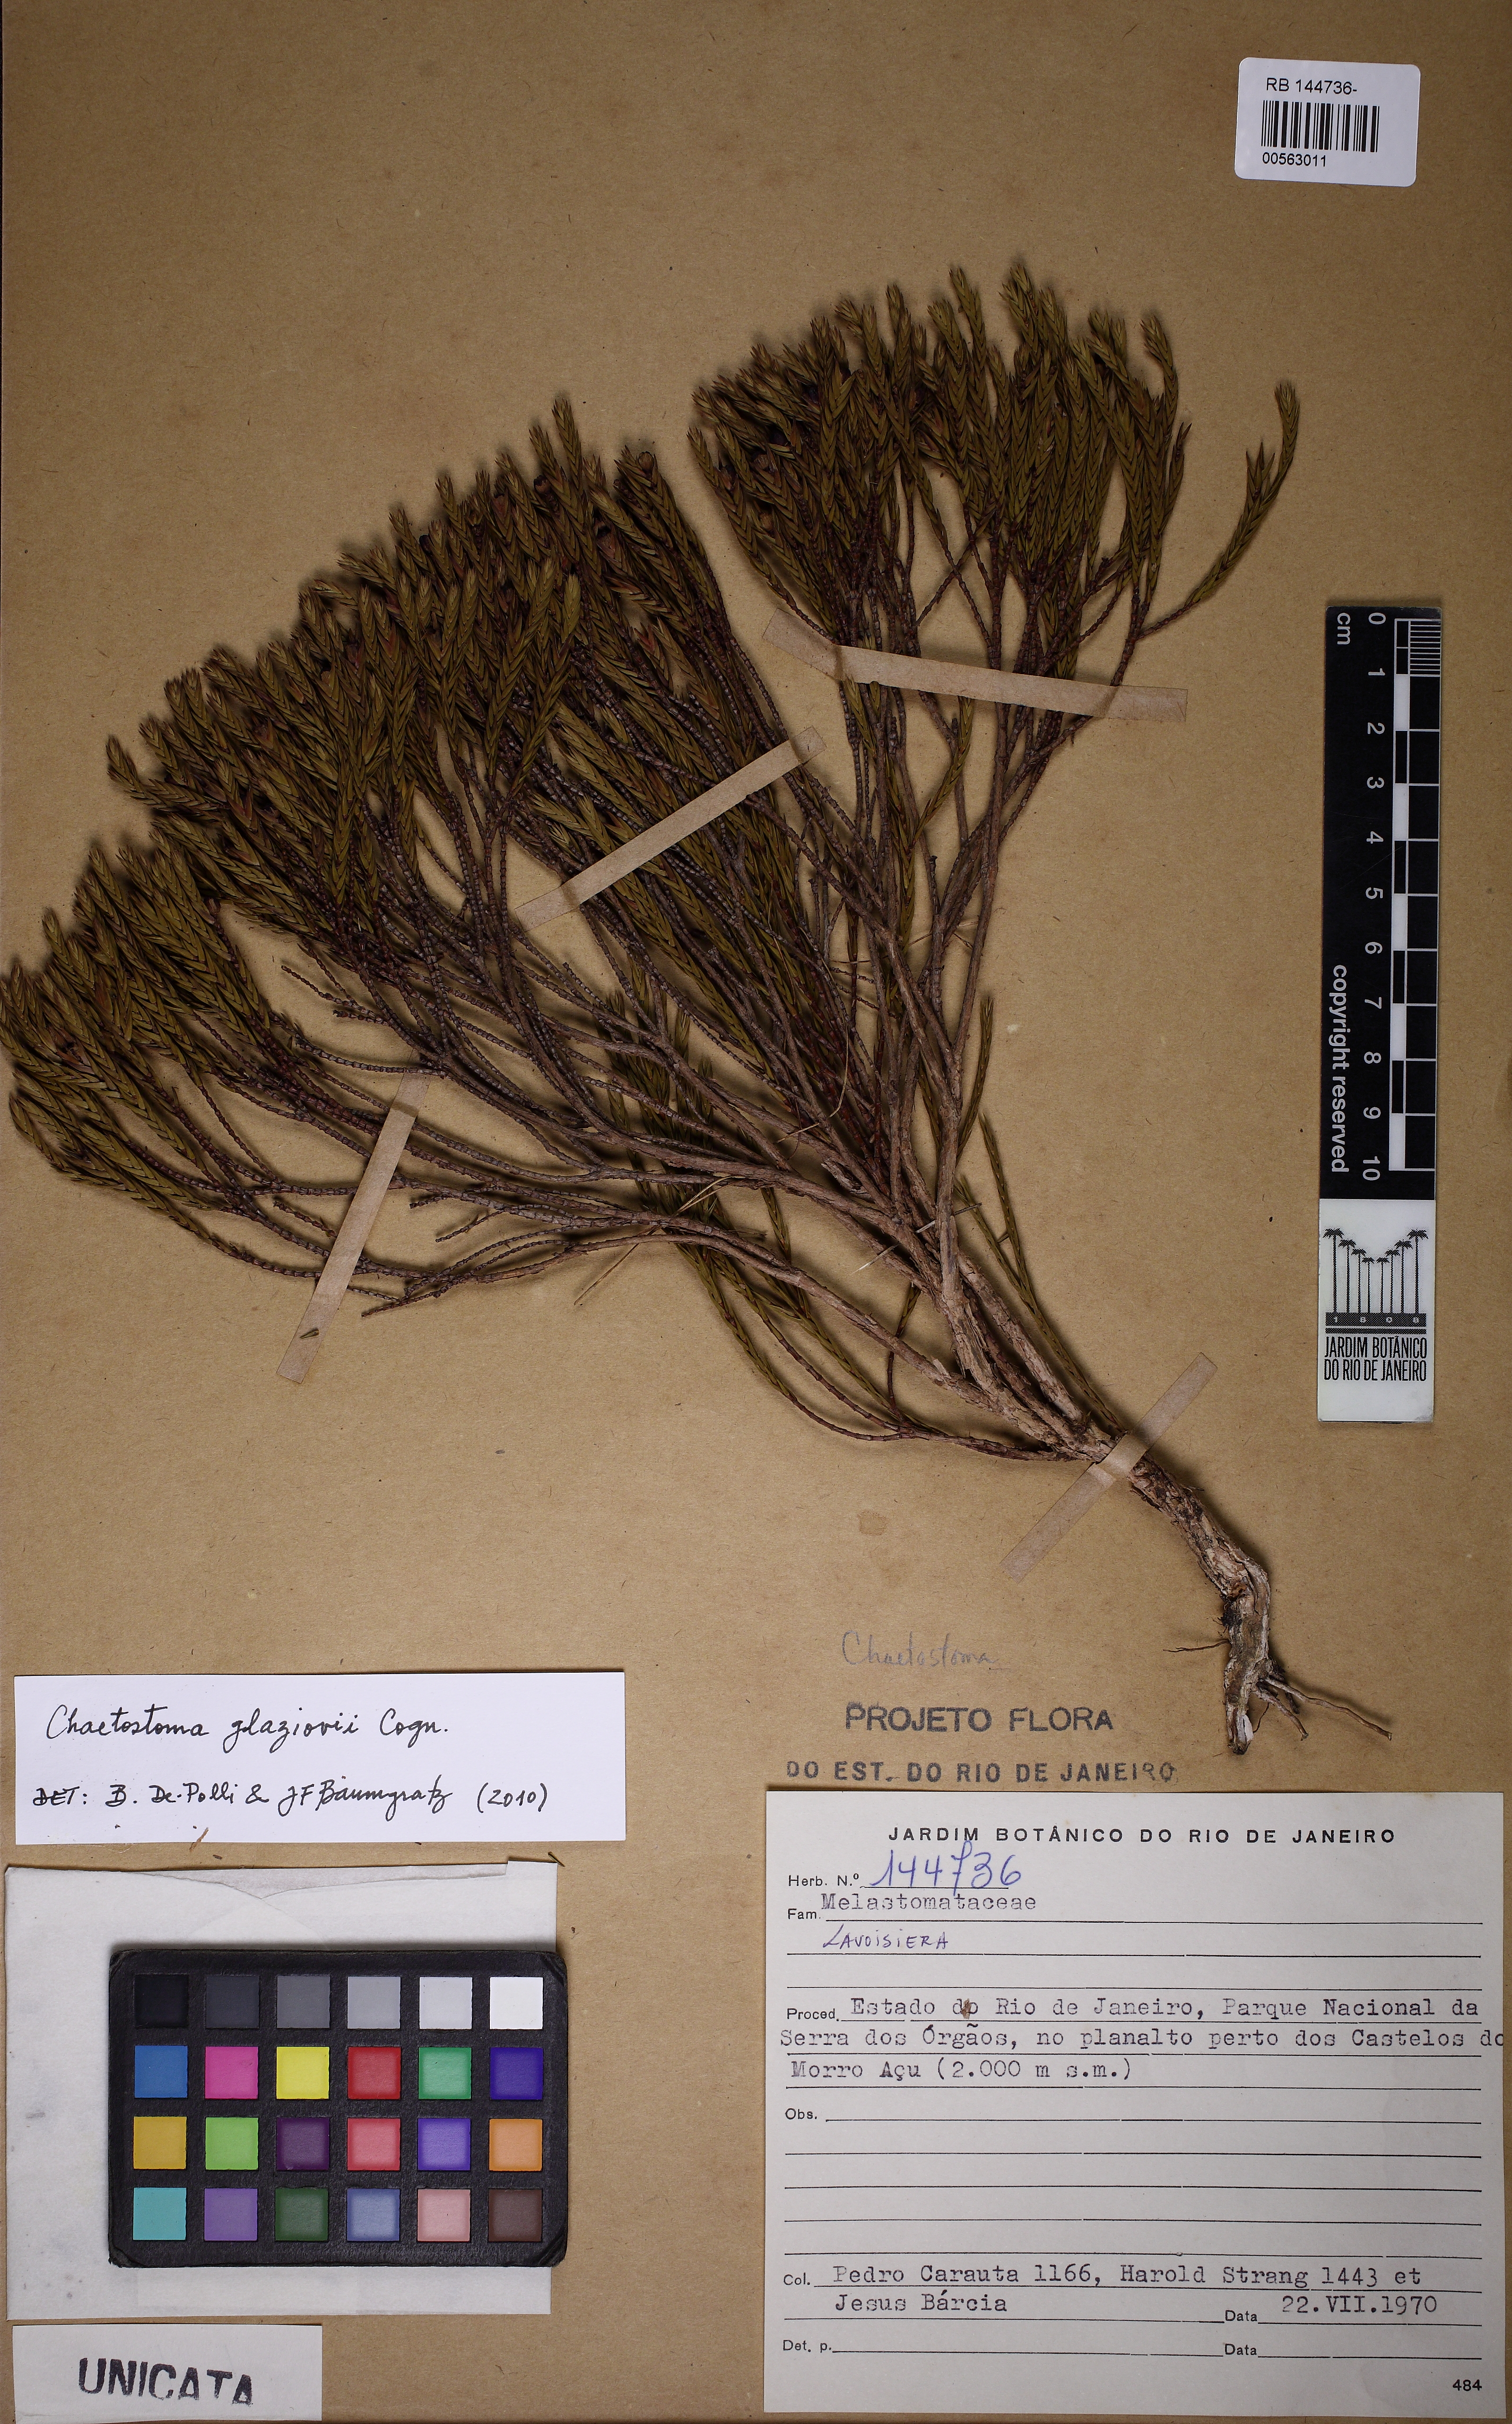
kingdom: Plantae
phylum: Tracheophyta
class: Magnoliopsida
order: Myrtales
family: Melastomataceae
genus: Microlicia
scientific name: Microlicia glaziovii
